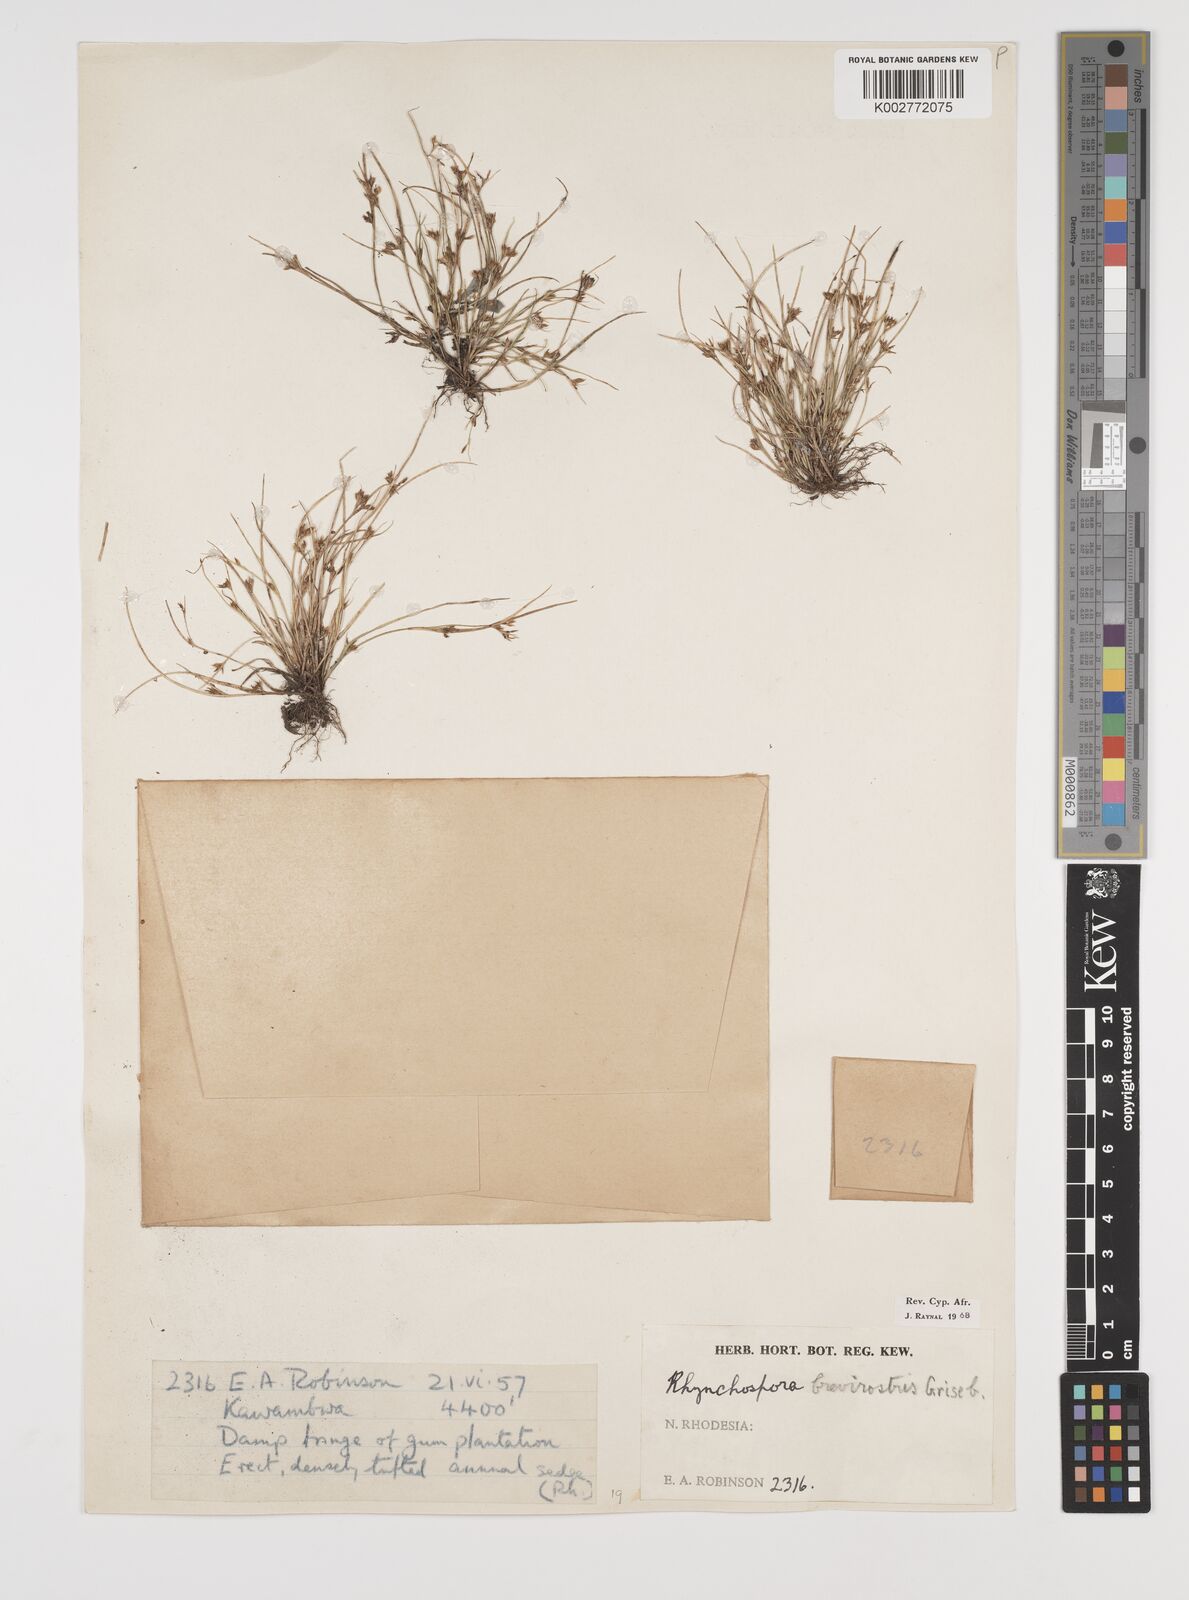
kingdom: Plantae
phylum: Tracheophyta
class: Liliopsida
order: Poales
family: Cyperaceae
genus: Rhynchospora
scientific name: Rhynchospora brevirostris
